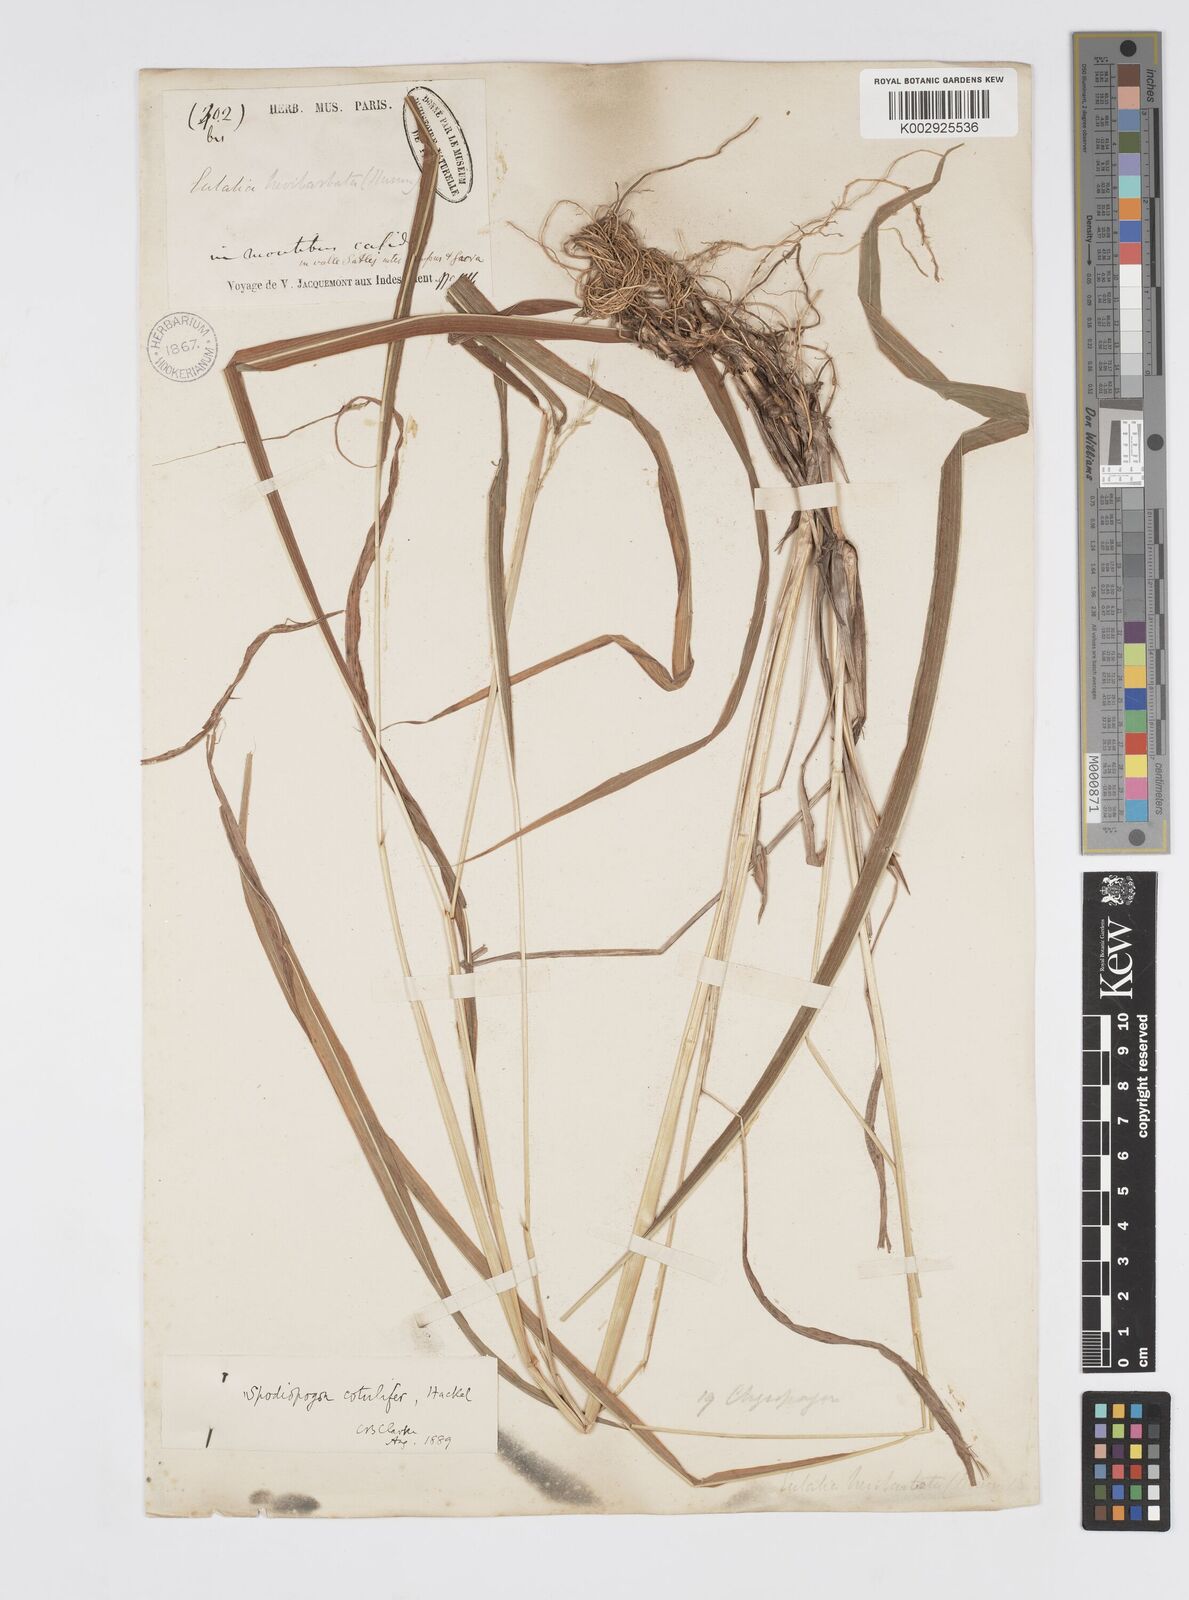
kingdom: Plantae
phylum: Tracheophyta
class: Liliopsida
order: Poales
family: Poaceae
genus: Spodiopogon
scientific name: Spodiopogon cotulifer
